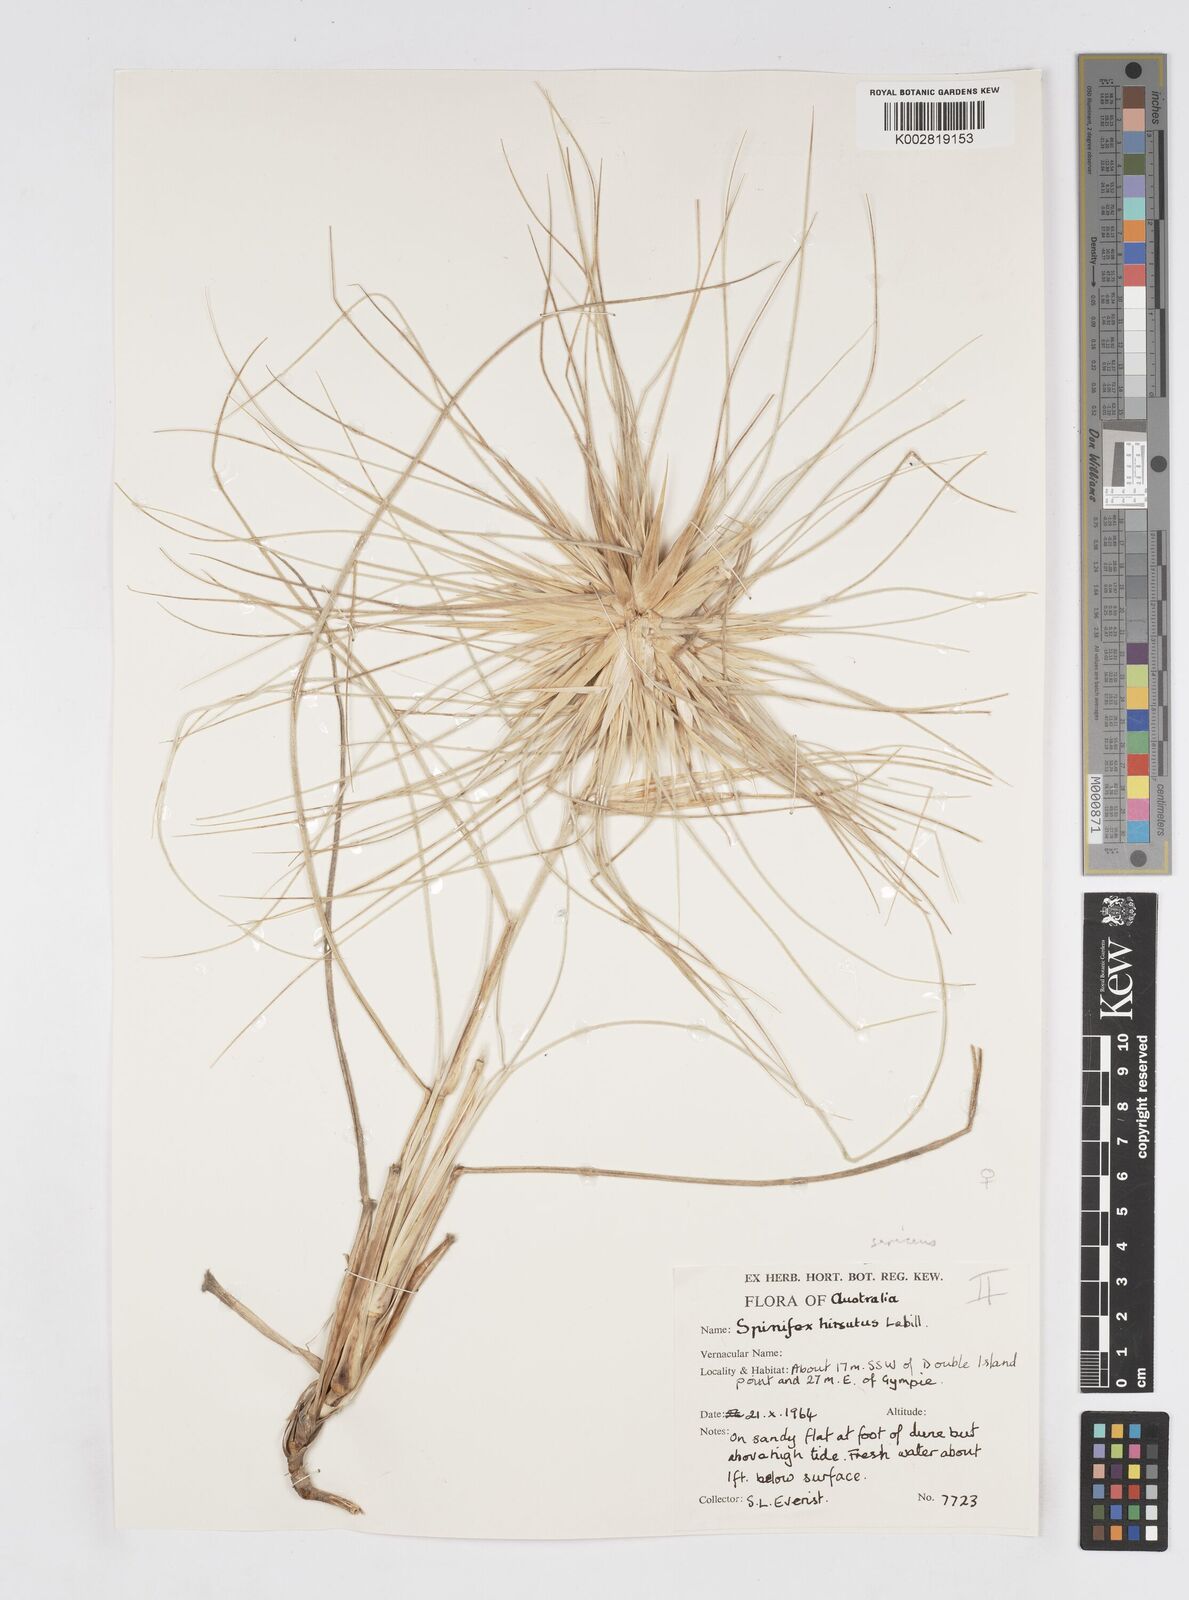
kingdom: Plantae
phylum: Tracheophyta
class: Liliopsida
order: Poales
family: Poaceae
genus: Spinifex
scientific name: Spinifex hirsutus
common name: Hairy spinifex
